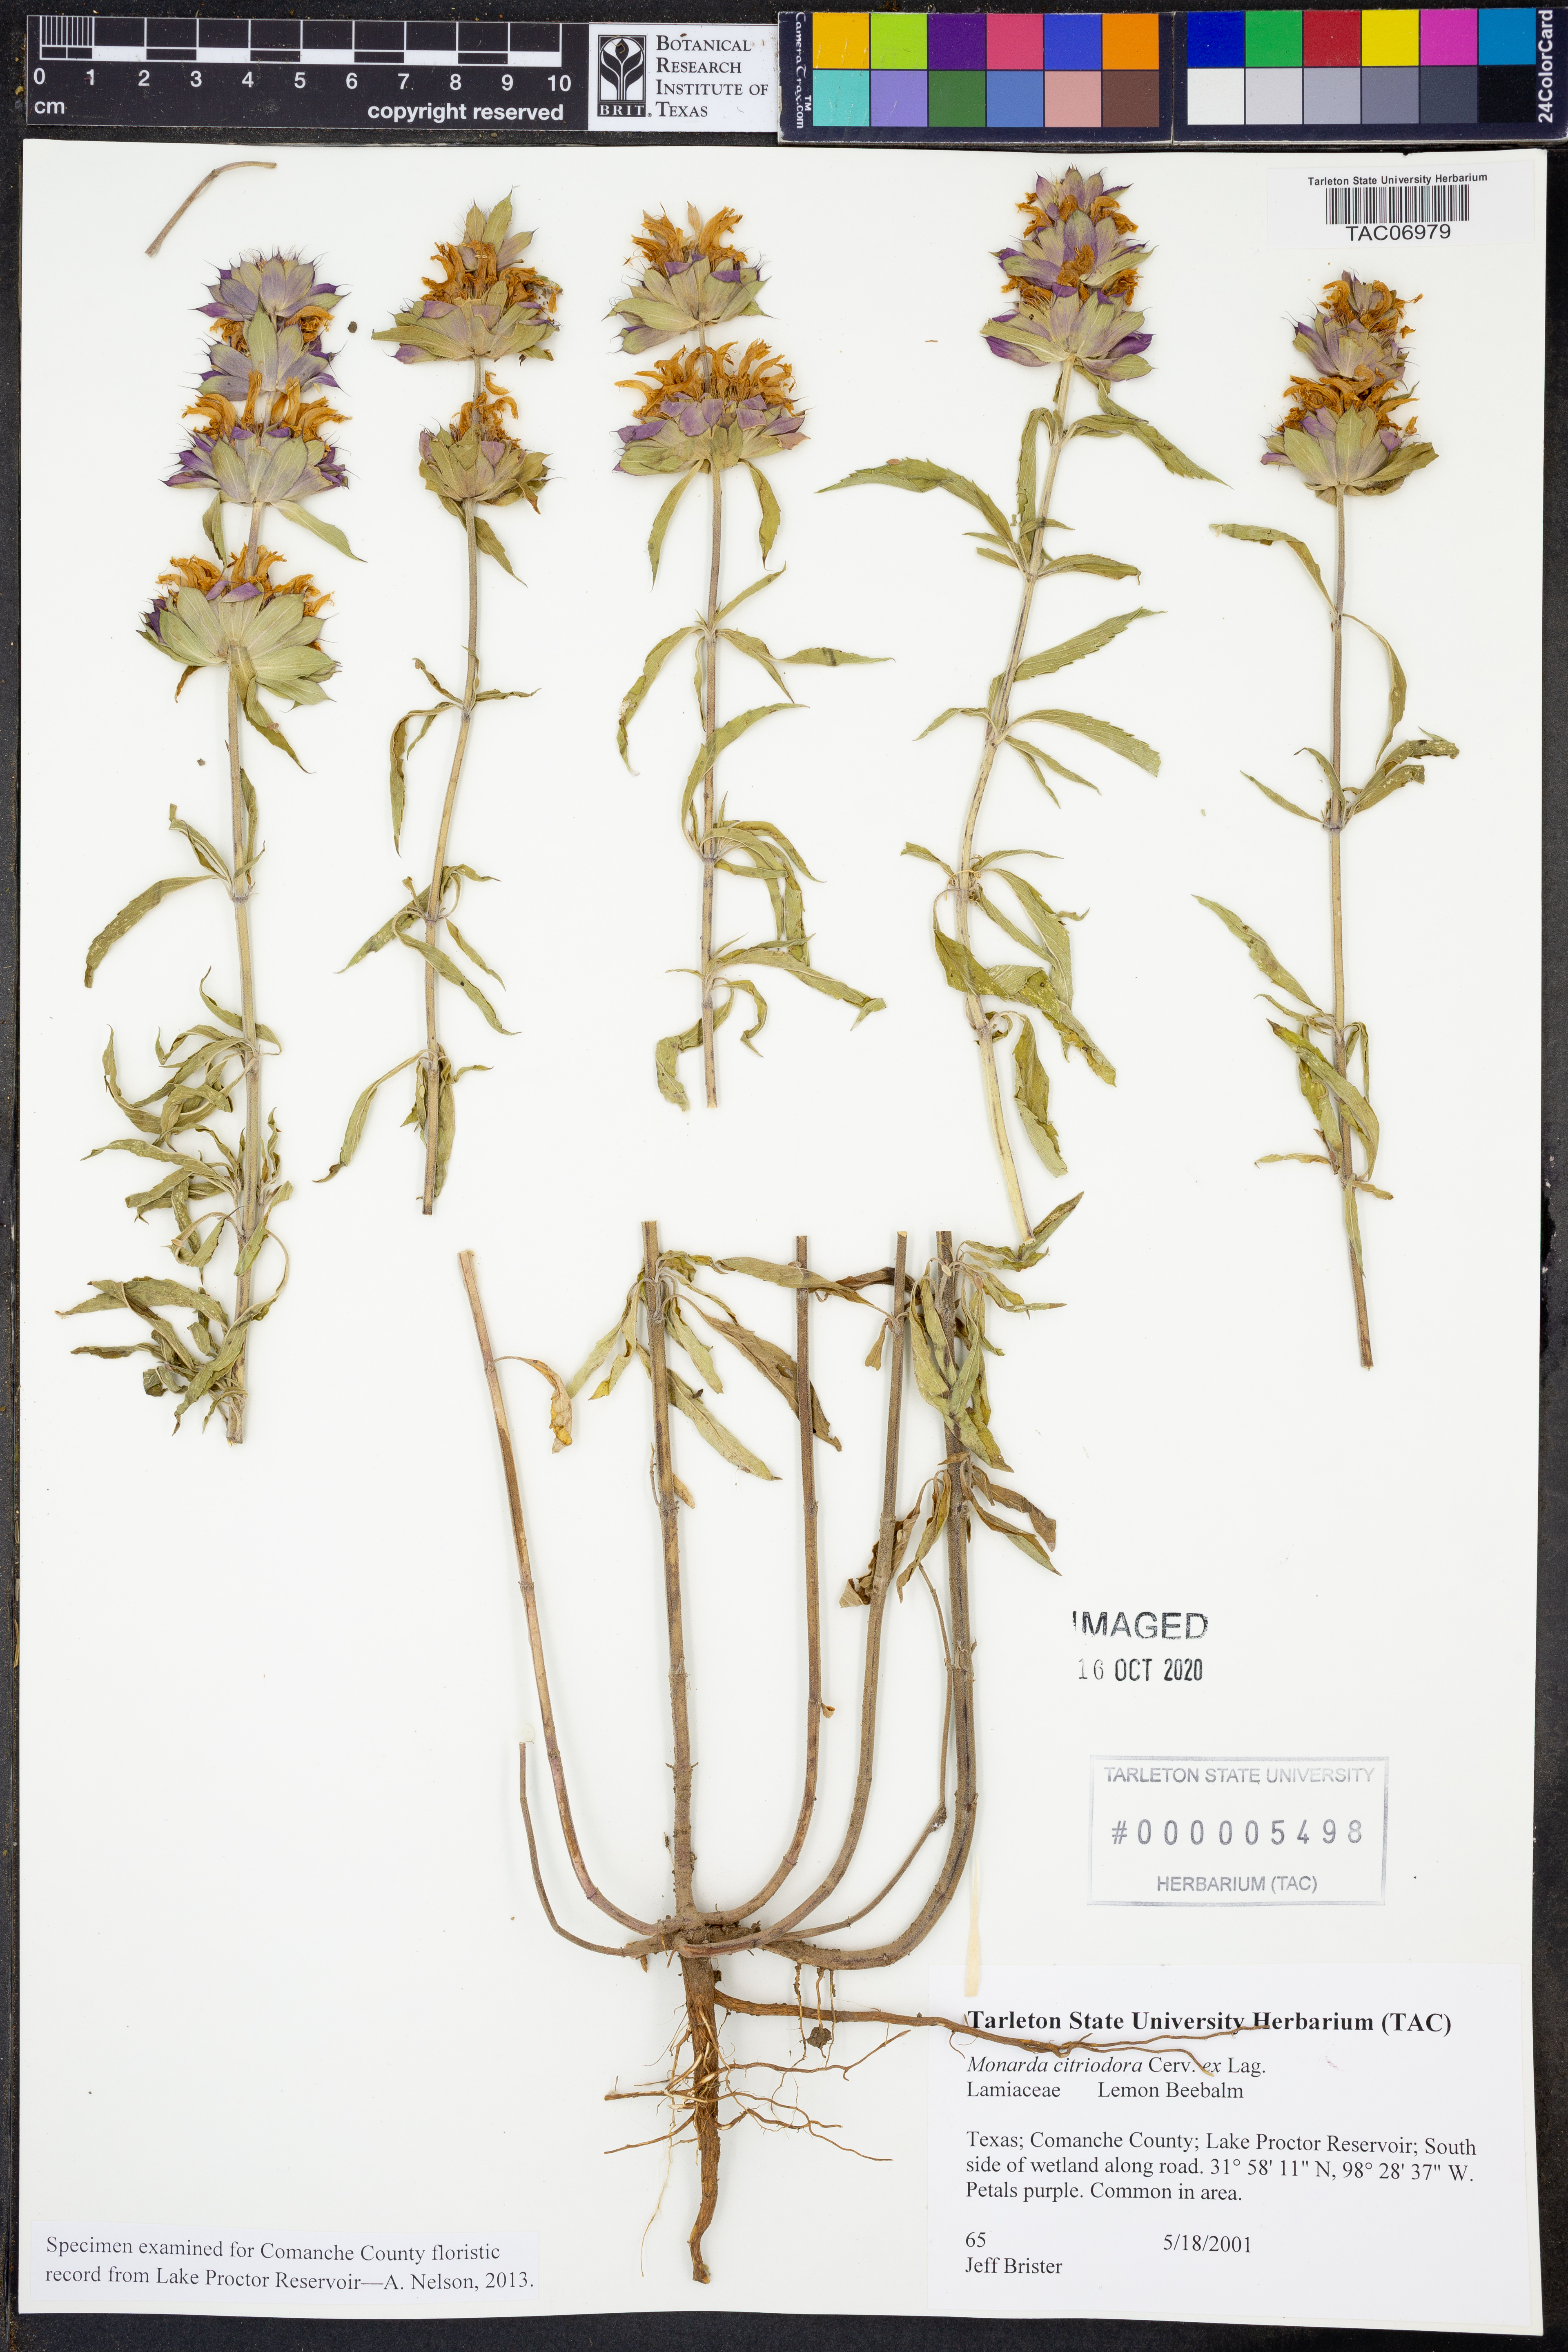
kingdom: Plantae
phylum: Tracheophyta
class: Magnoliopsida
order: Lamiales
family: Lamiaceae
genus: Monarda
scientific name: Monarda citriodora
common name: Lemon beebalm
